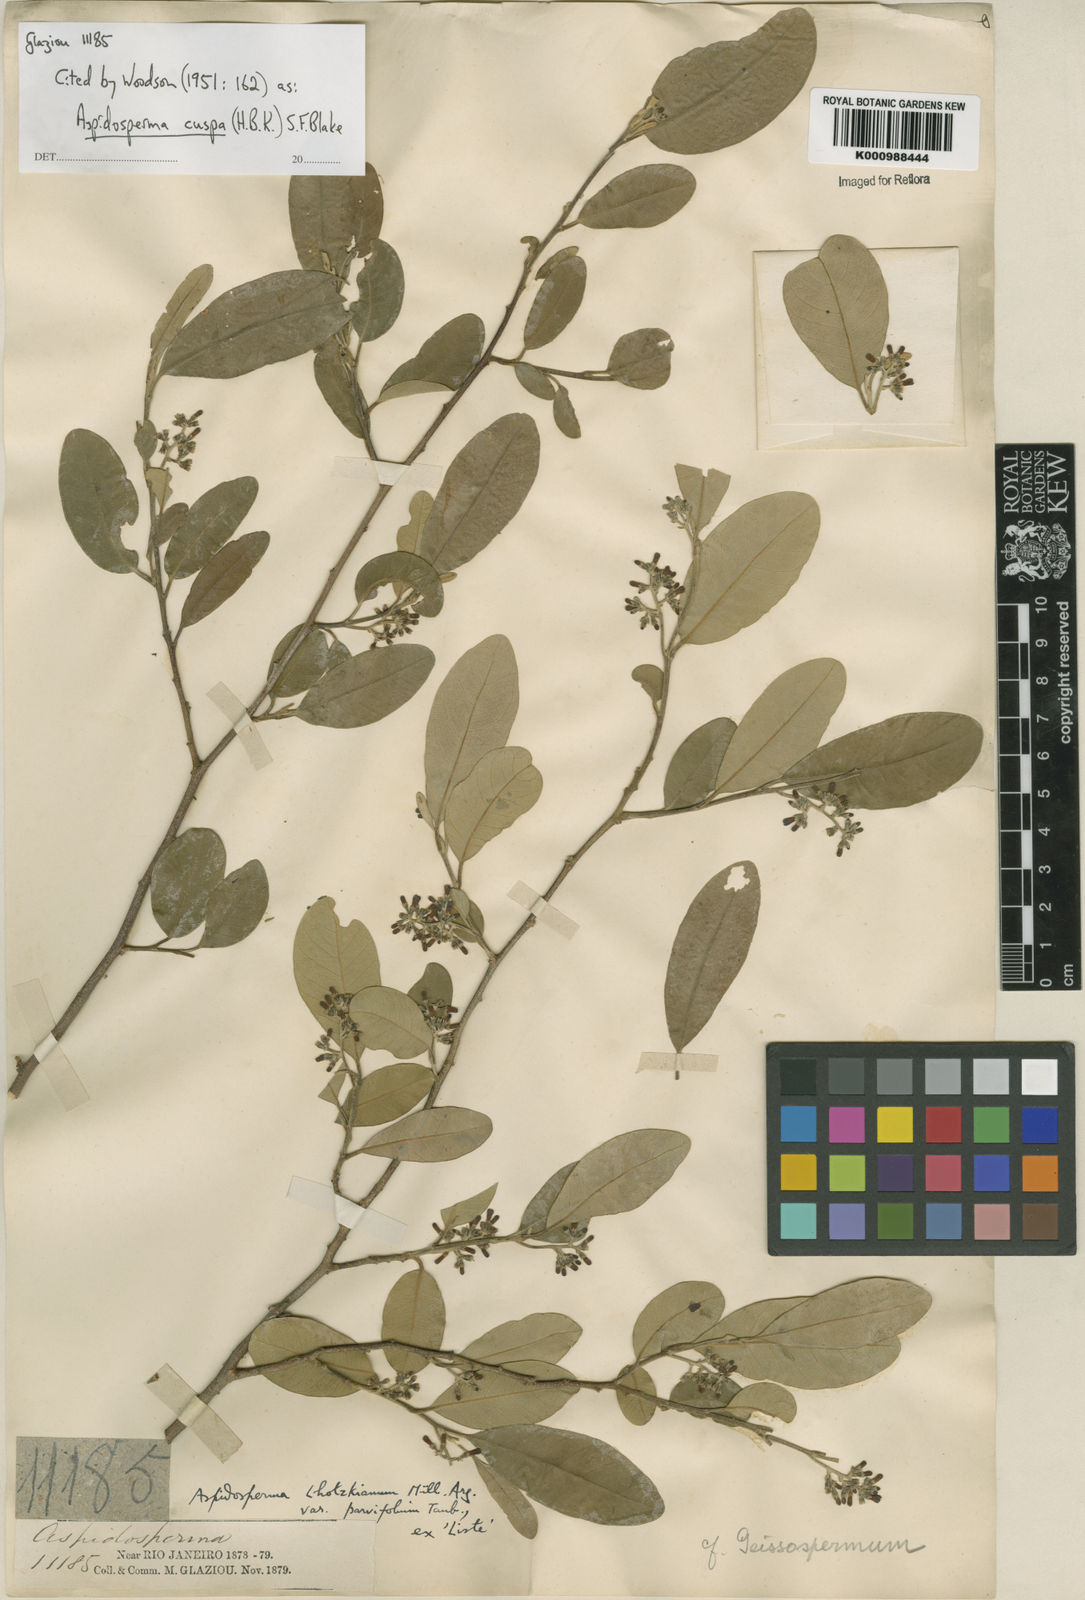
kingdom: Plantae
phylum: Tracheophyta
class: Magnoliopsida
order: Gentianales
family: Apocynaceae
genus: Aspidosperma
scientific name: Aspidosperma cuspa
